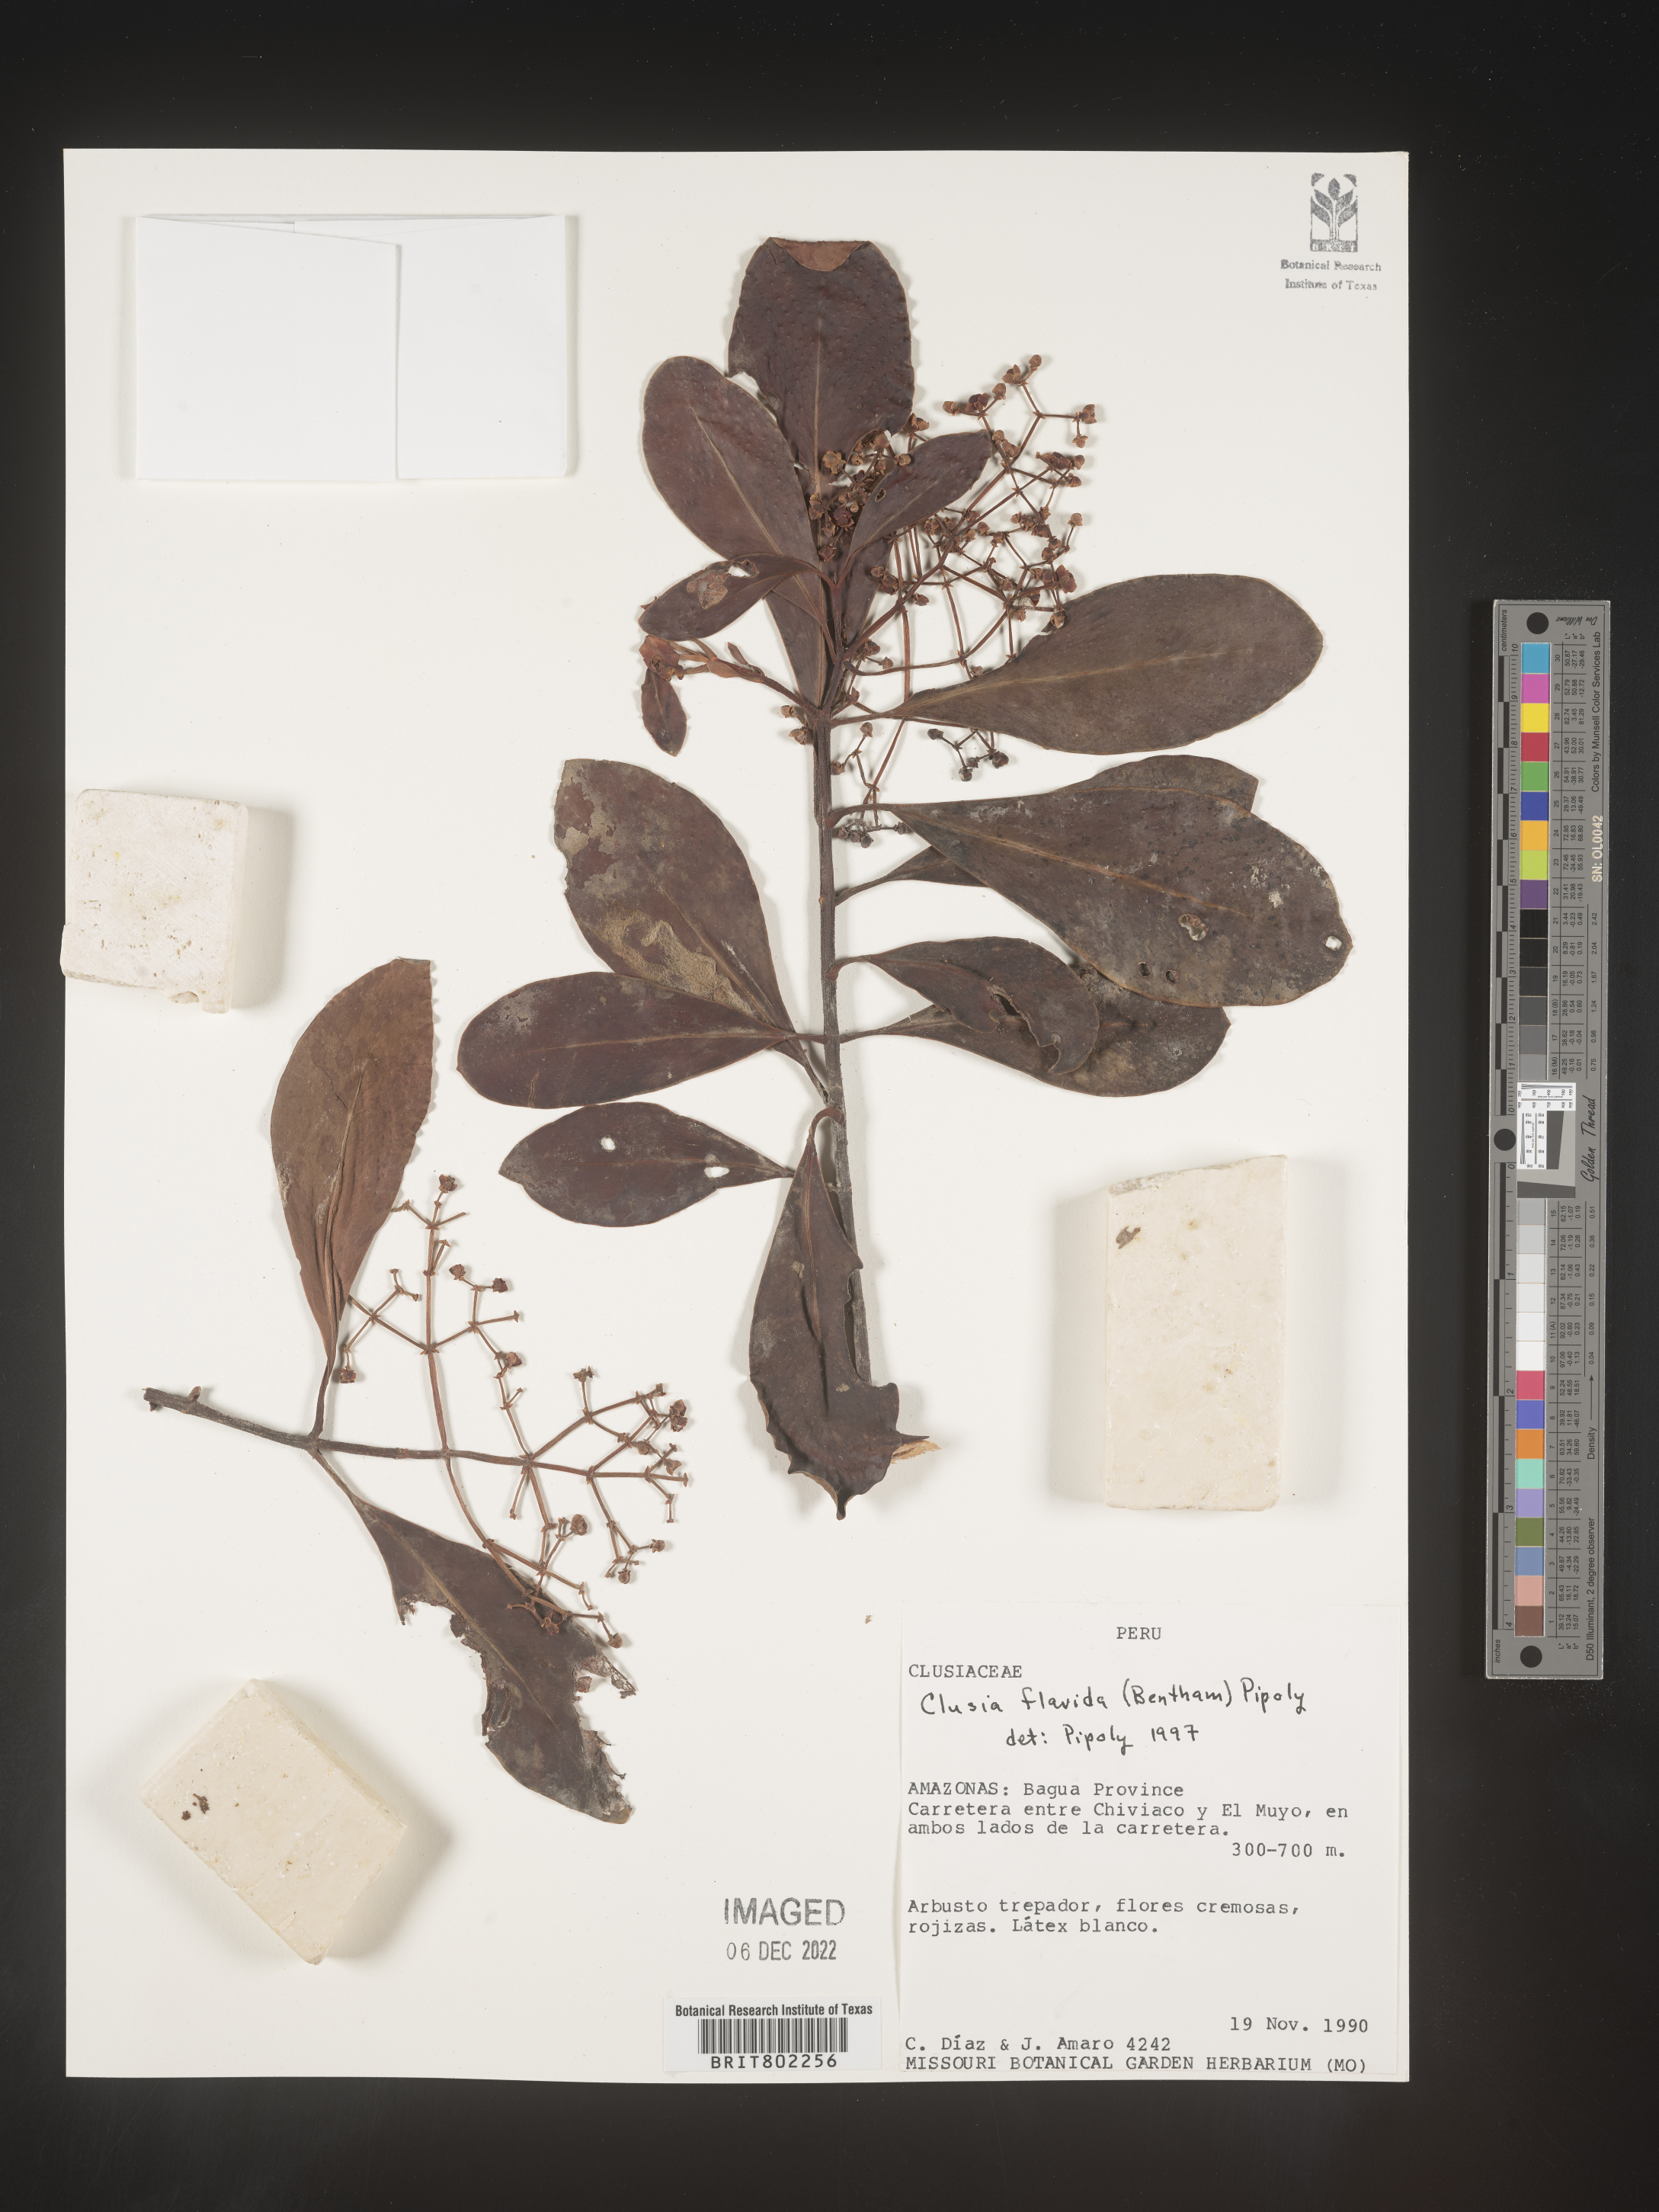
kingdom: Plantae
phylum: Tracheophyta
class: Magnoliopsida
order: Malpighiales
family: Clusiaceae
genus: Clusia
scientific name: Clusia flavida
